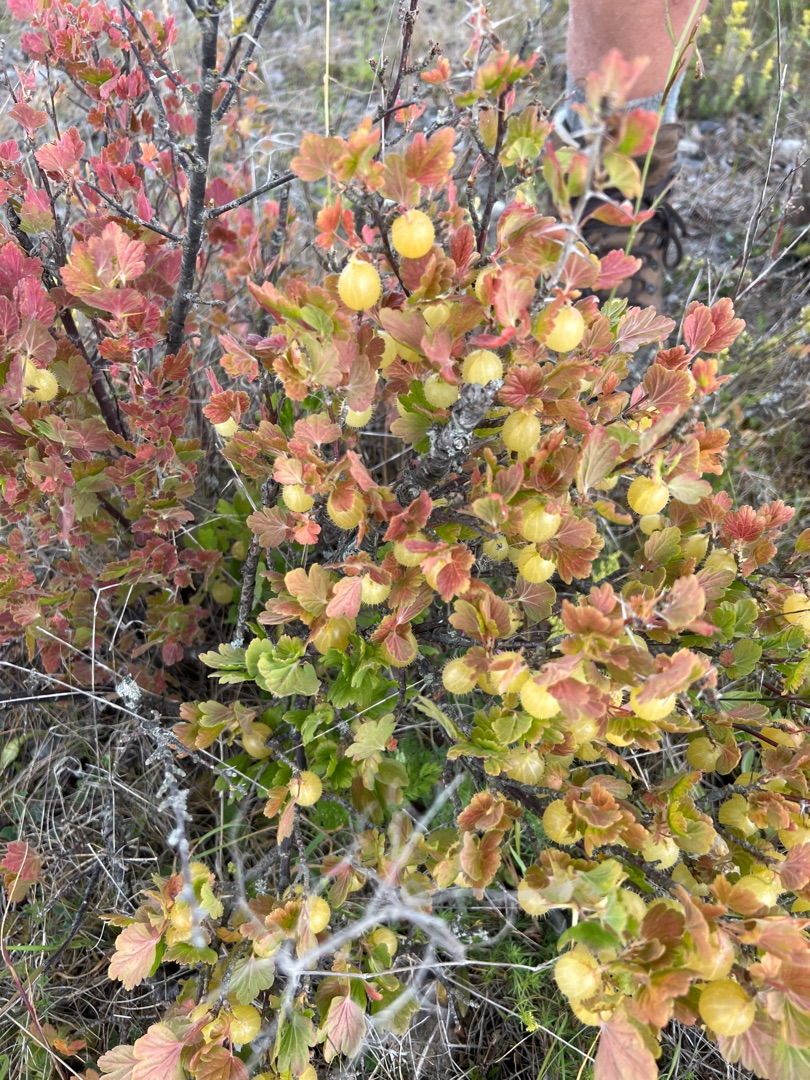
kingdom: Plantae
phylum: Tracheophyta
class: Magnoliopsida
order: Saxifragales
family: Grossulariaceae
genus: Ribes
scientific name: Ribes uva-crispa
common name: Stikkelsbær
